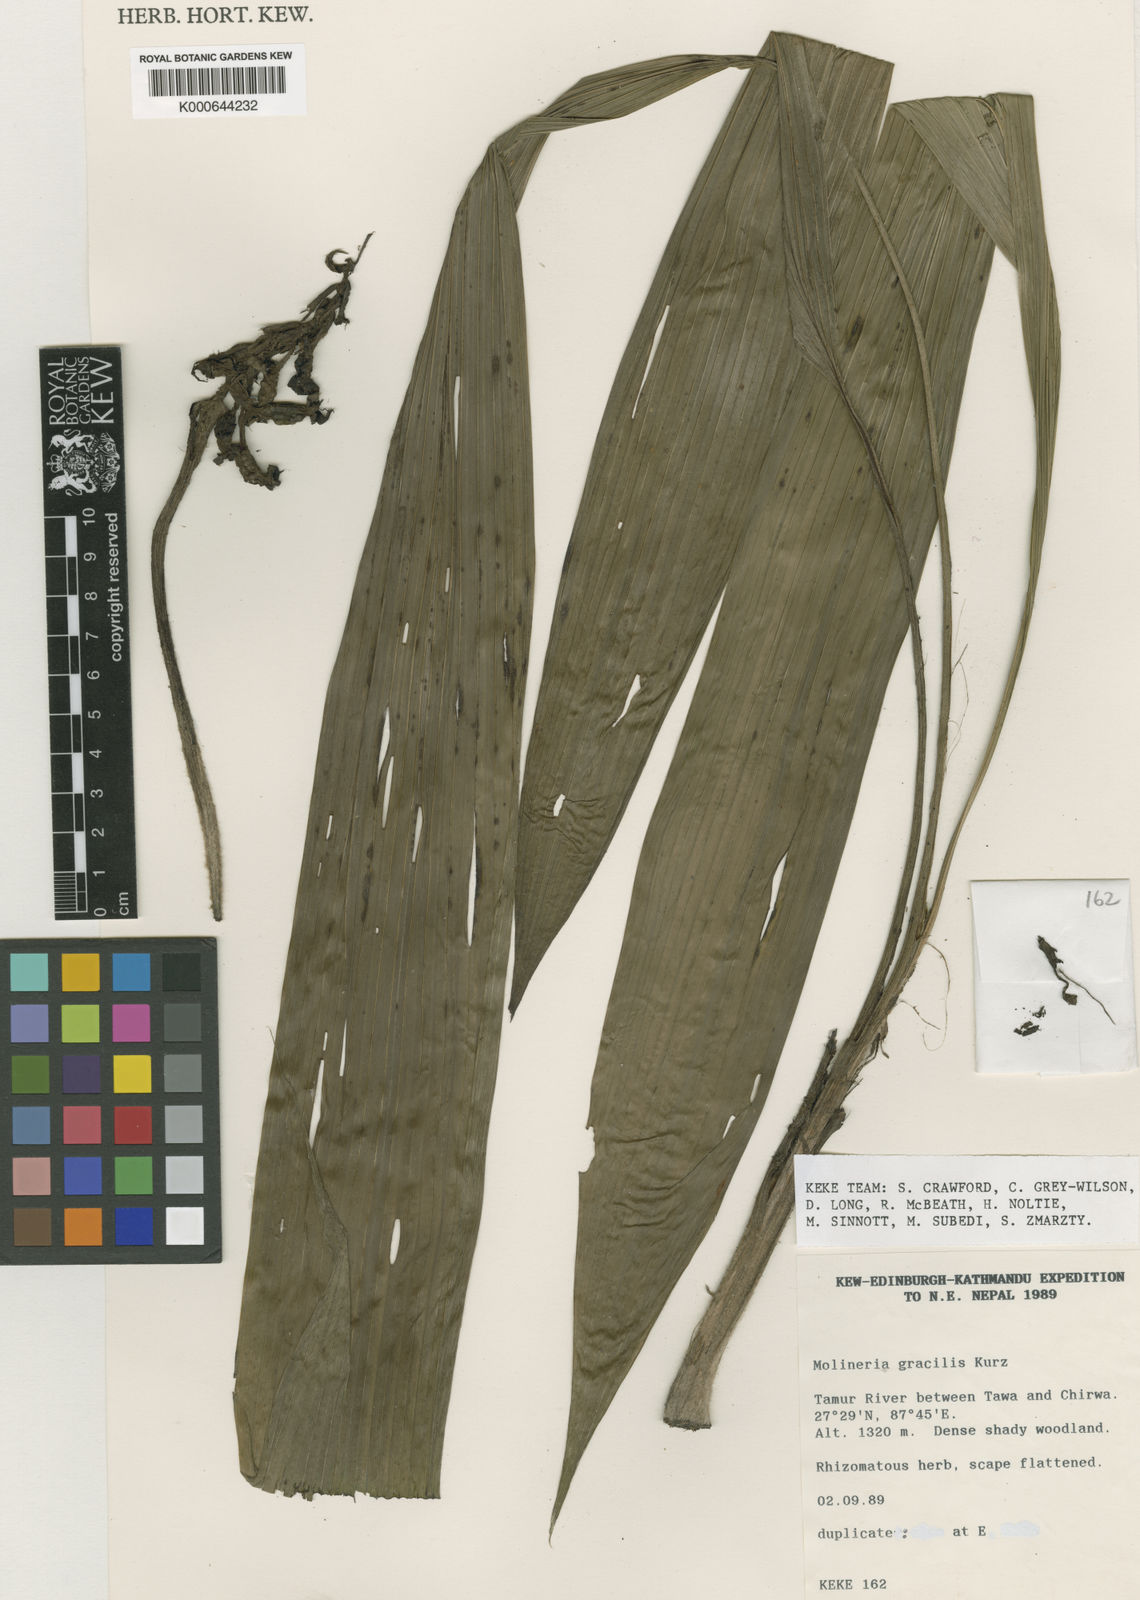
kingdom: Plantae
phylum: Tracheophyta
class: Liliopsida
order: Asparagales
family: Hypoxidaceae
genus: Curculigo
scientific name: Curculigo gracilis
